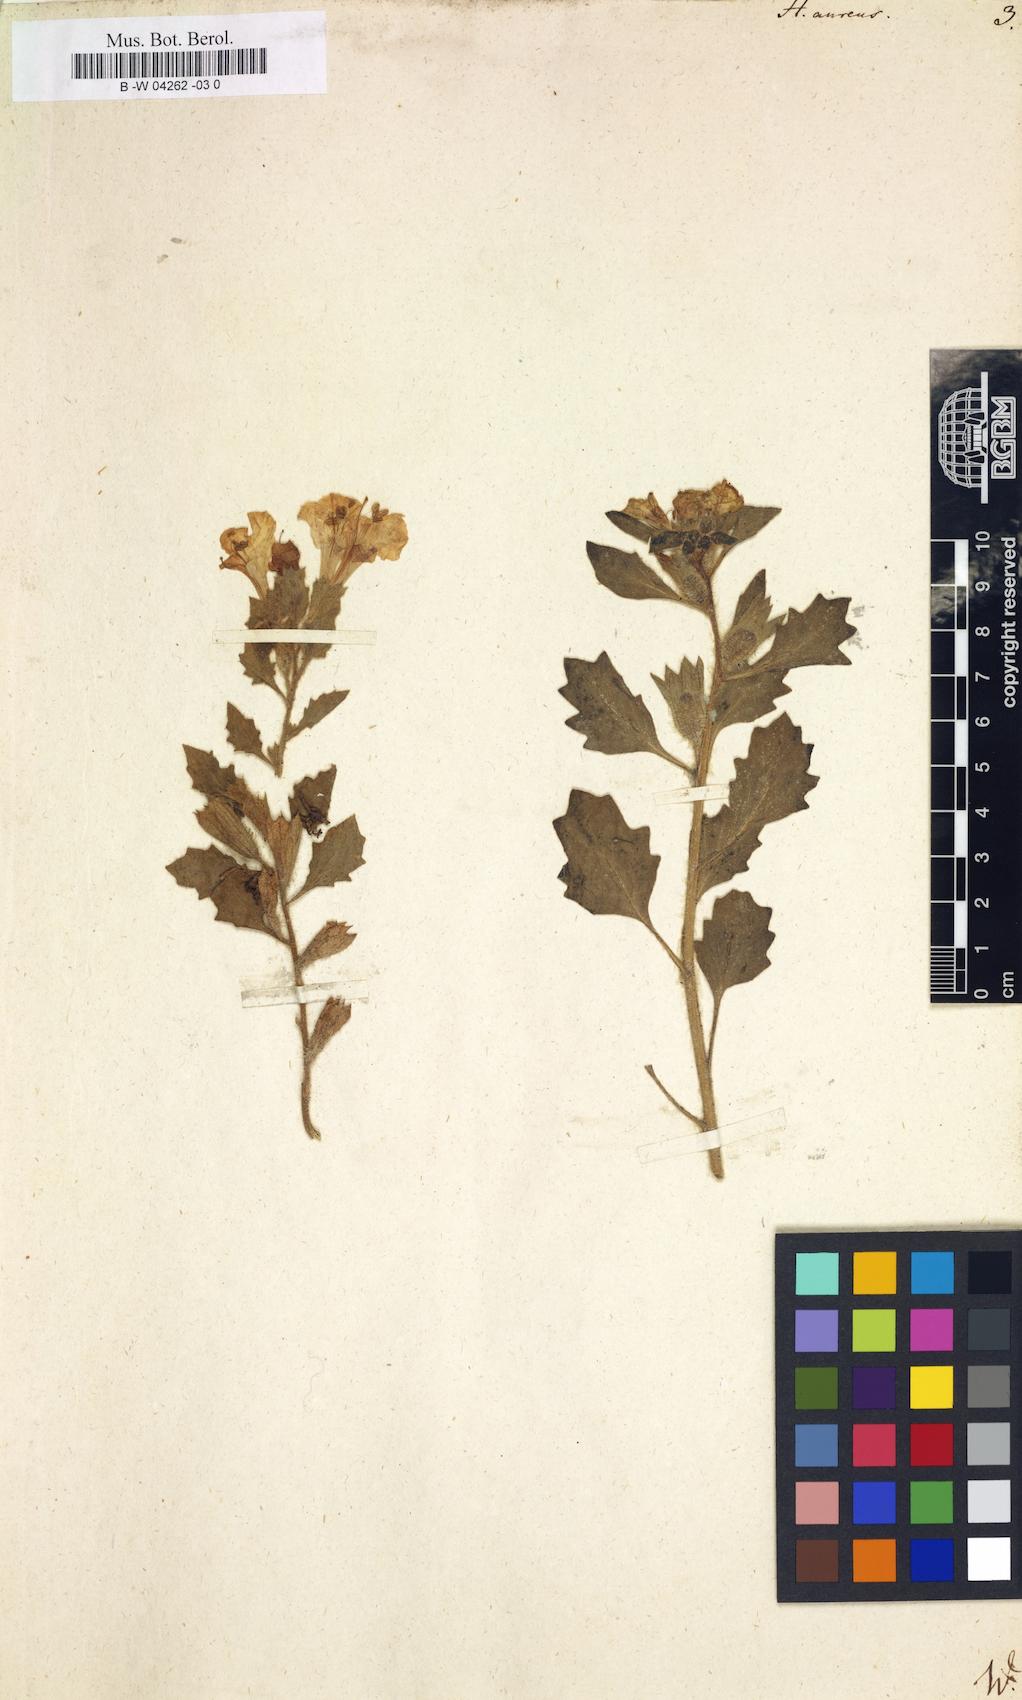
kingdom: Plantae
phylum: Tracheophyta
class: Magnoliopsida
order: Solanales
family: Solanaceae
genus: Hyoscyamus
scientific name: Hyoscyamus aureus
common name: Golden henbane
